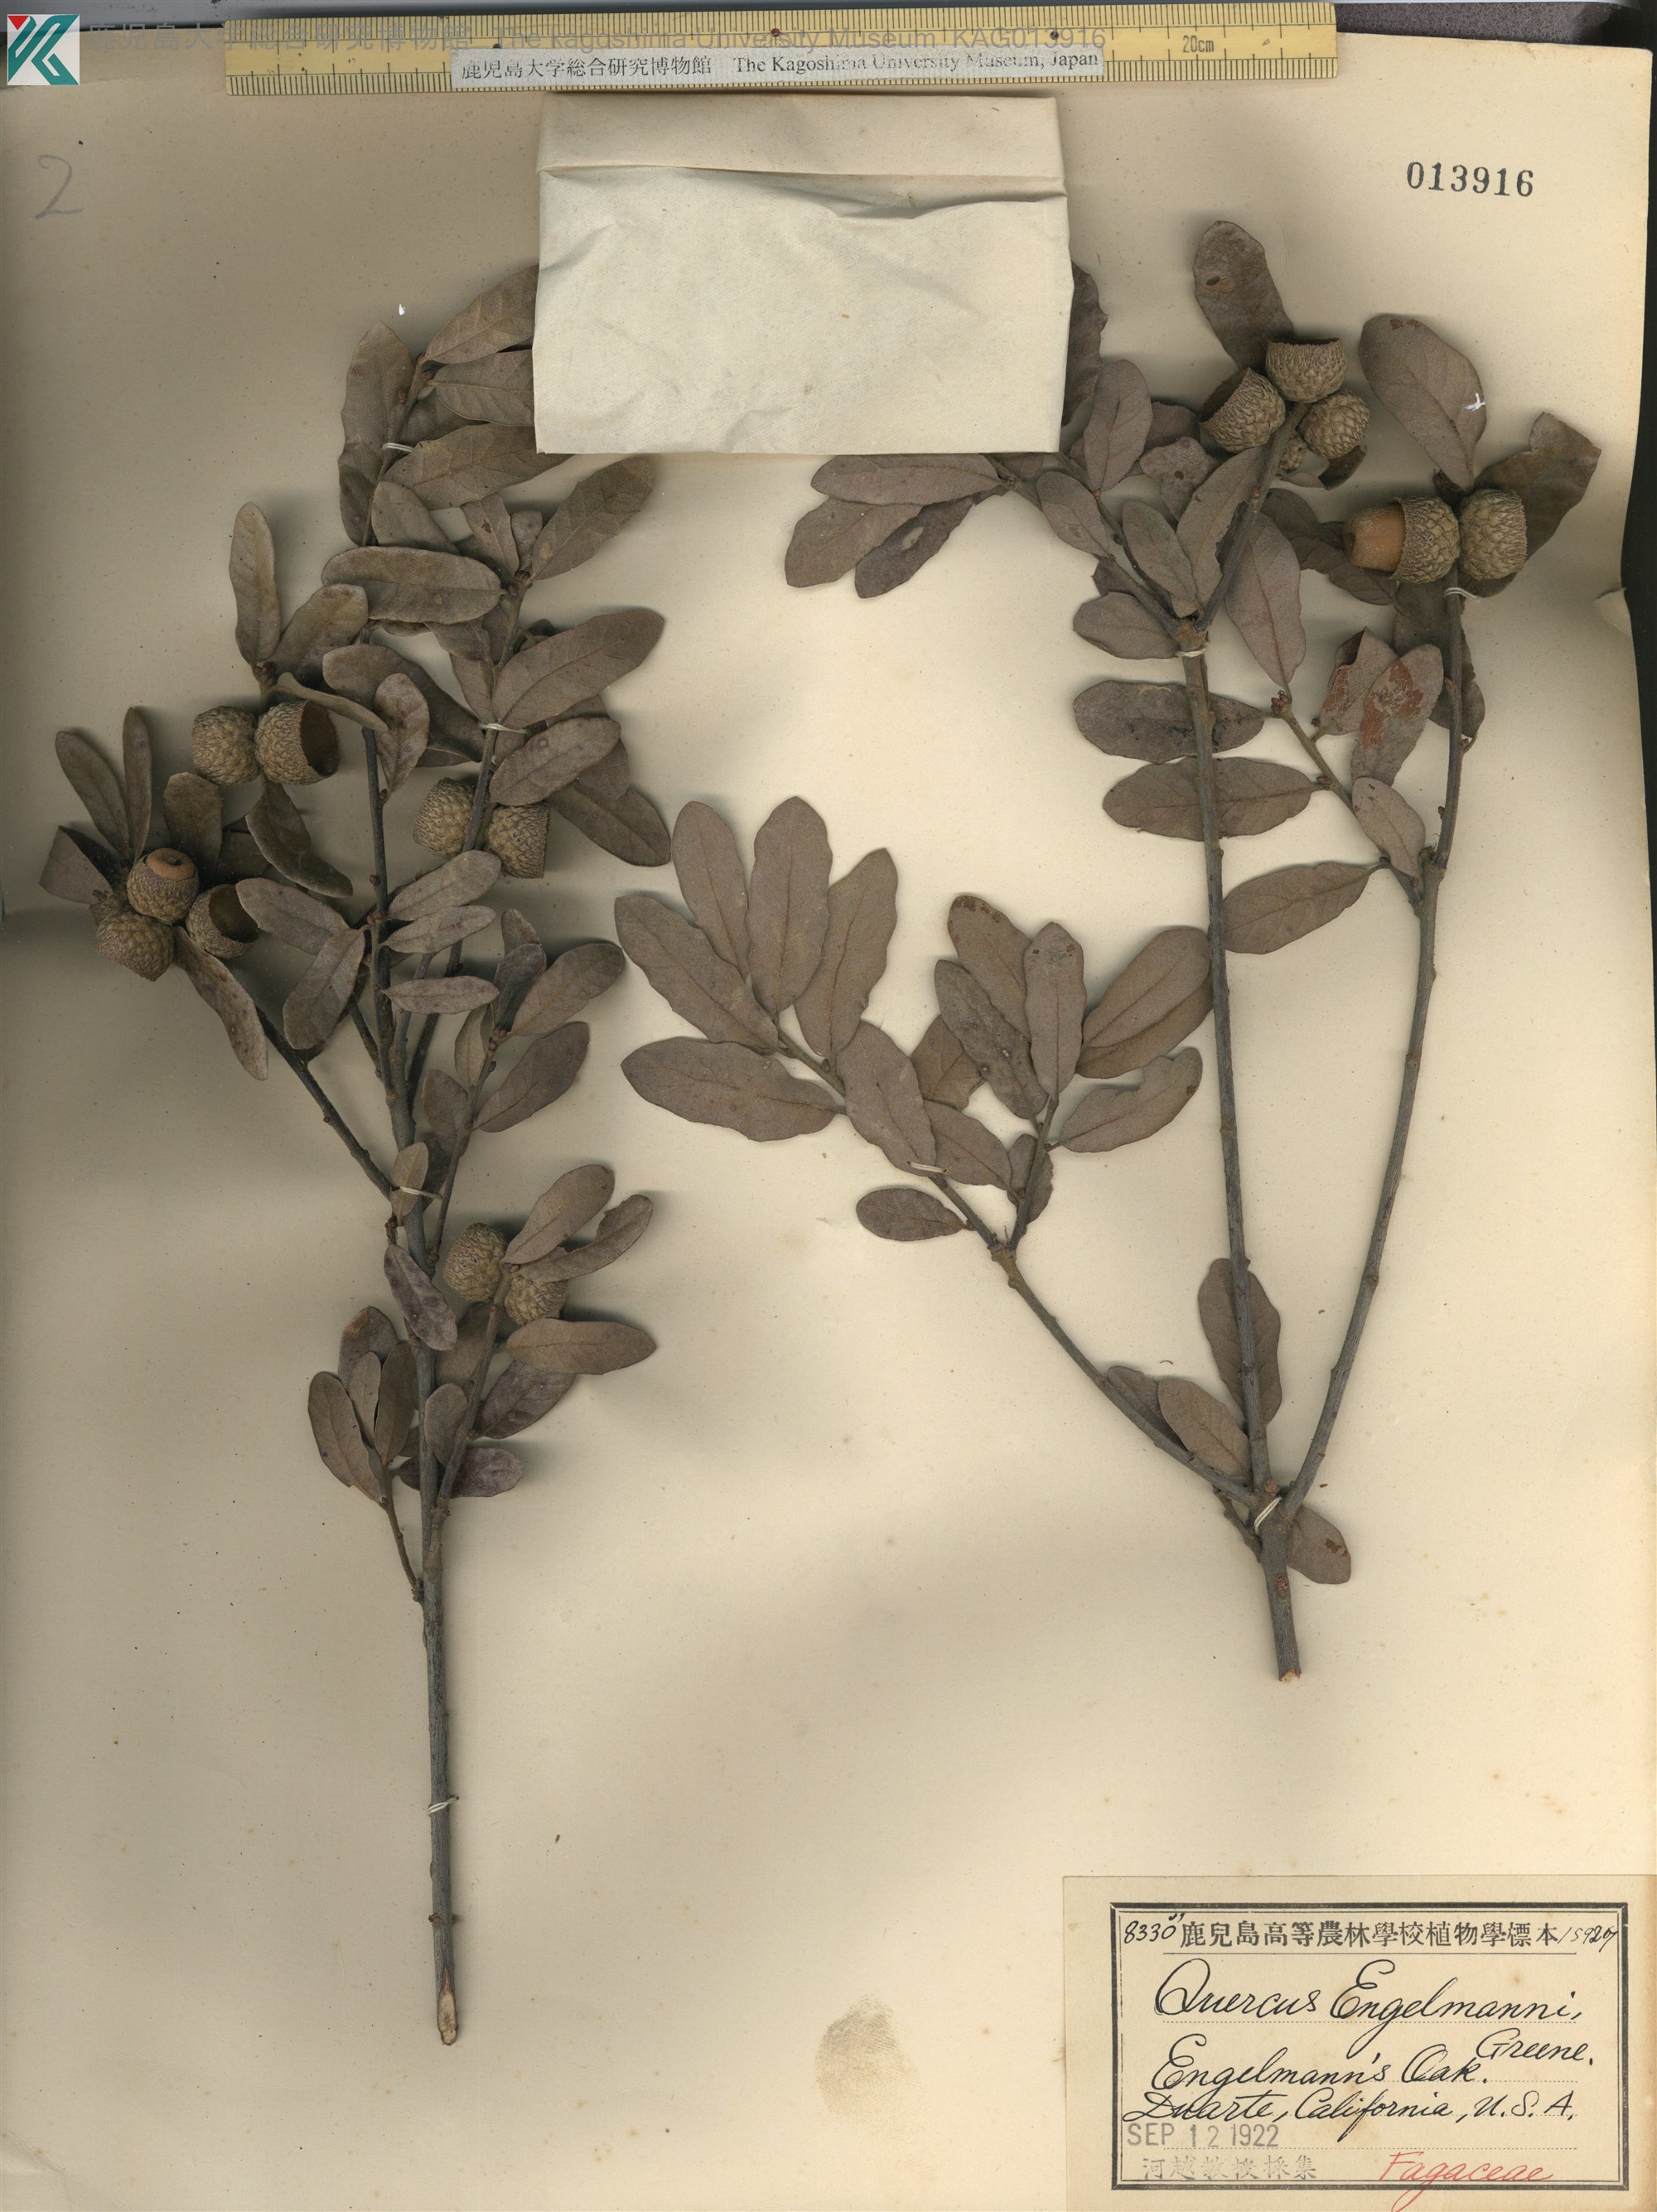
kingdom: Plantae
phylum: Tracheophyta
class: Magnoliopsida
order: Fagales
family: Fagaceae
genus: Quercus
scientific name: Quercus engelmannii
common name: Engelmann oak
